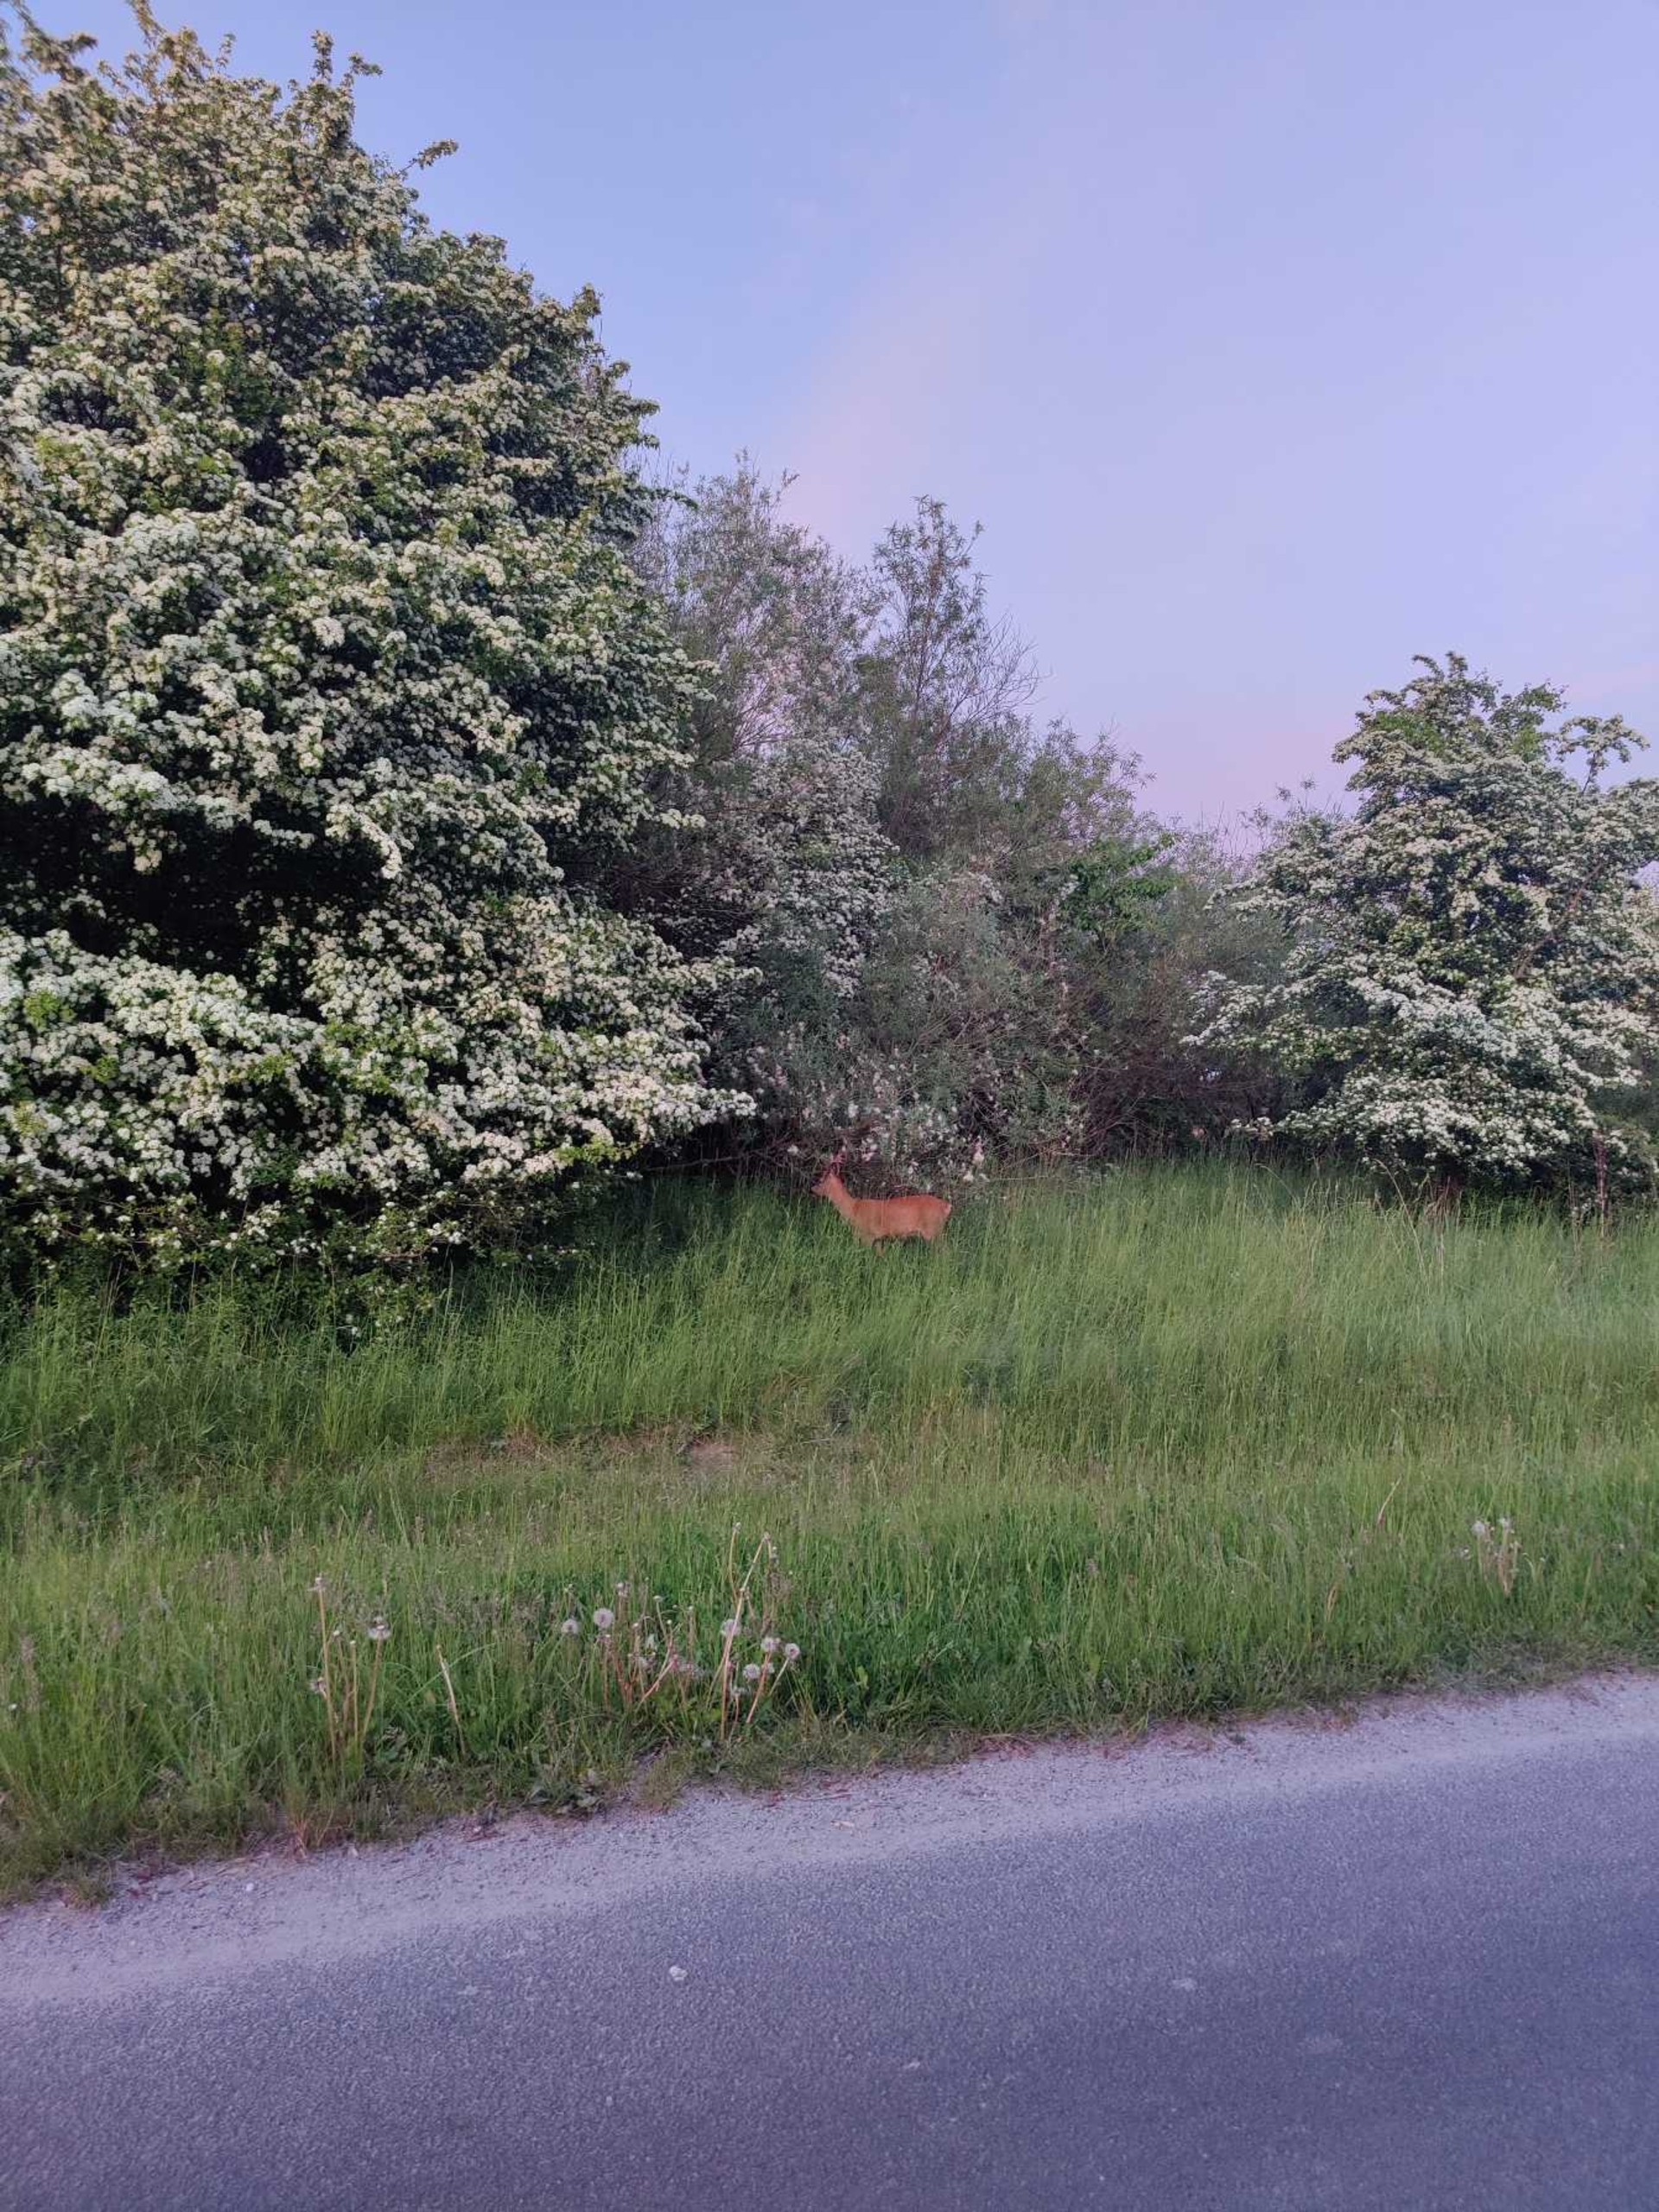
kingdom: Animalia
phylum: Chordata
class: Mammalia
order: Artiodactyla
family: Cervidae
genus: Capreolus
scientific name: Capreolus capreolus
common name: Rådyr
